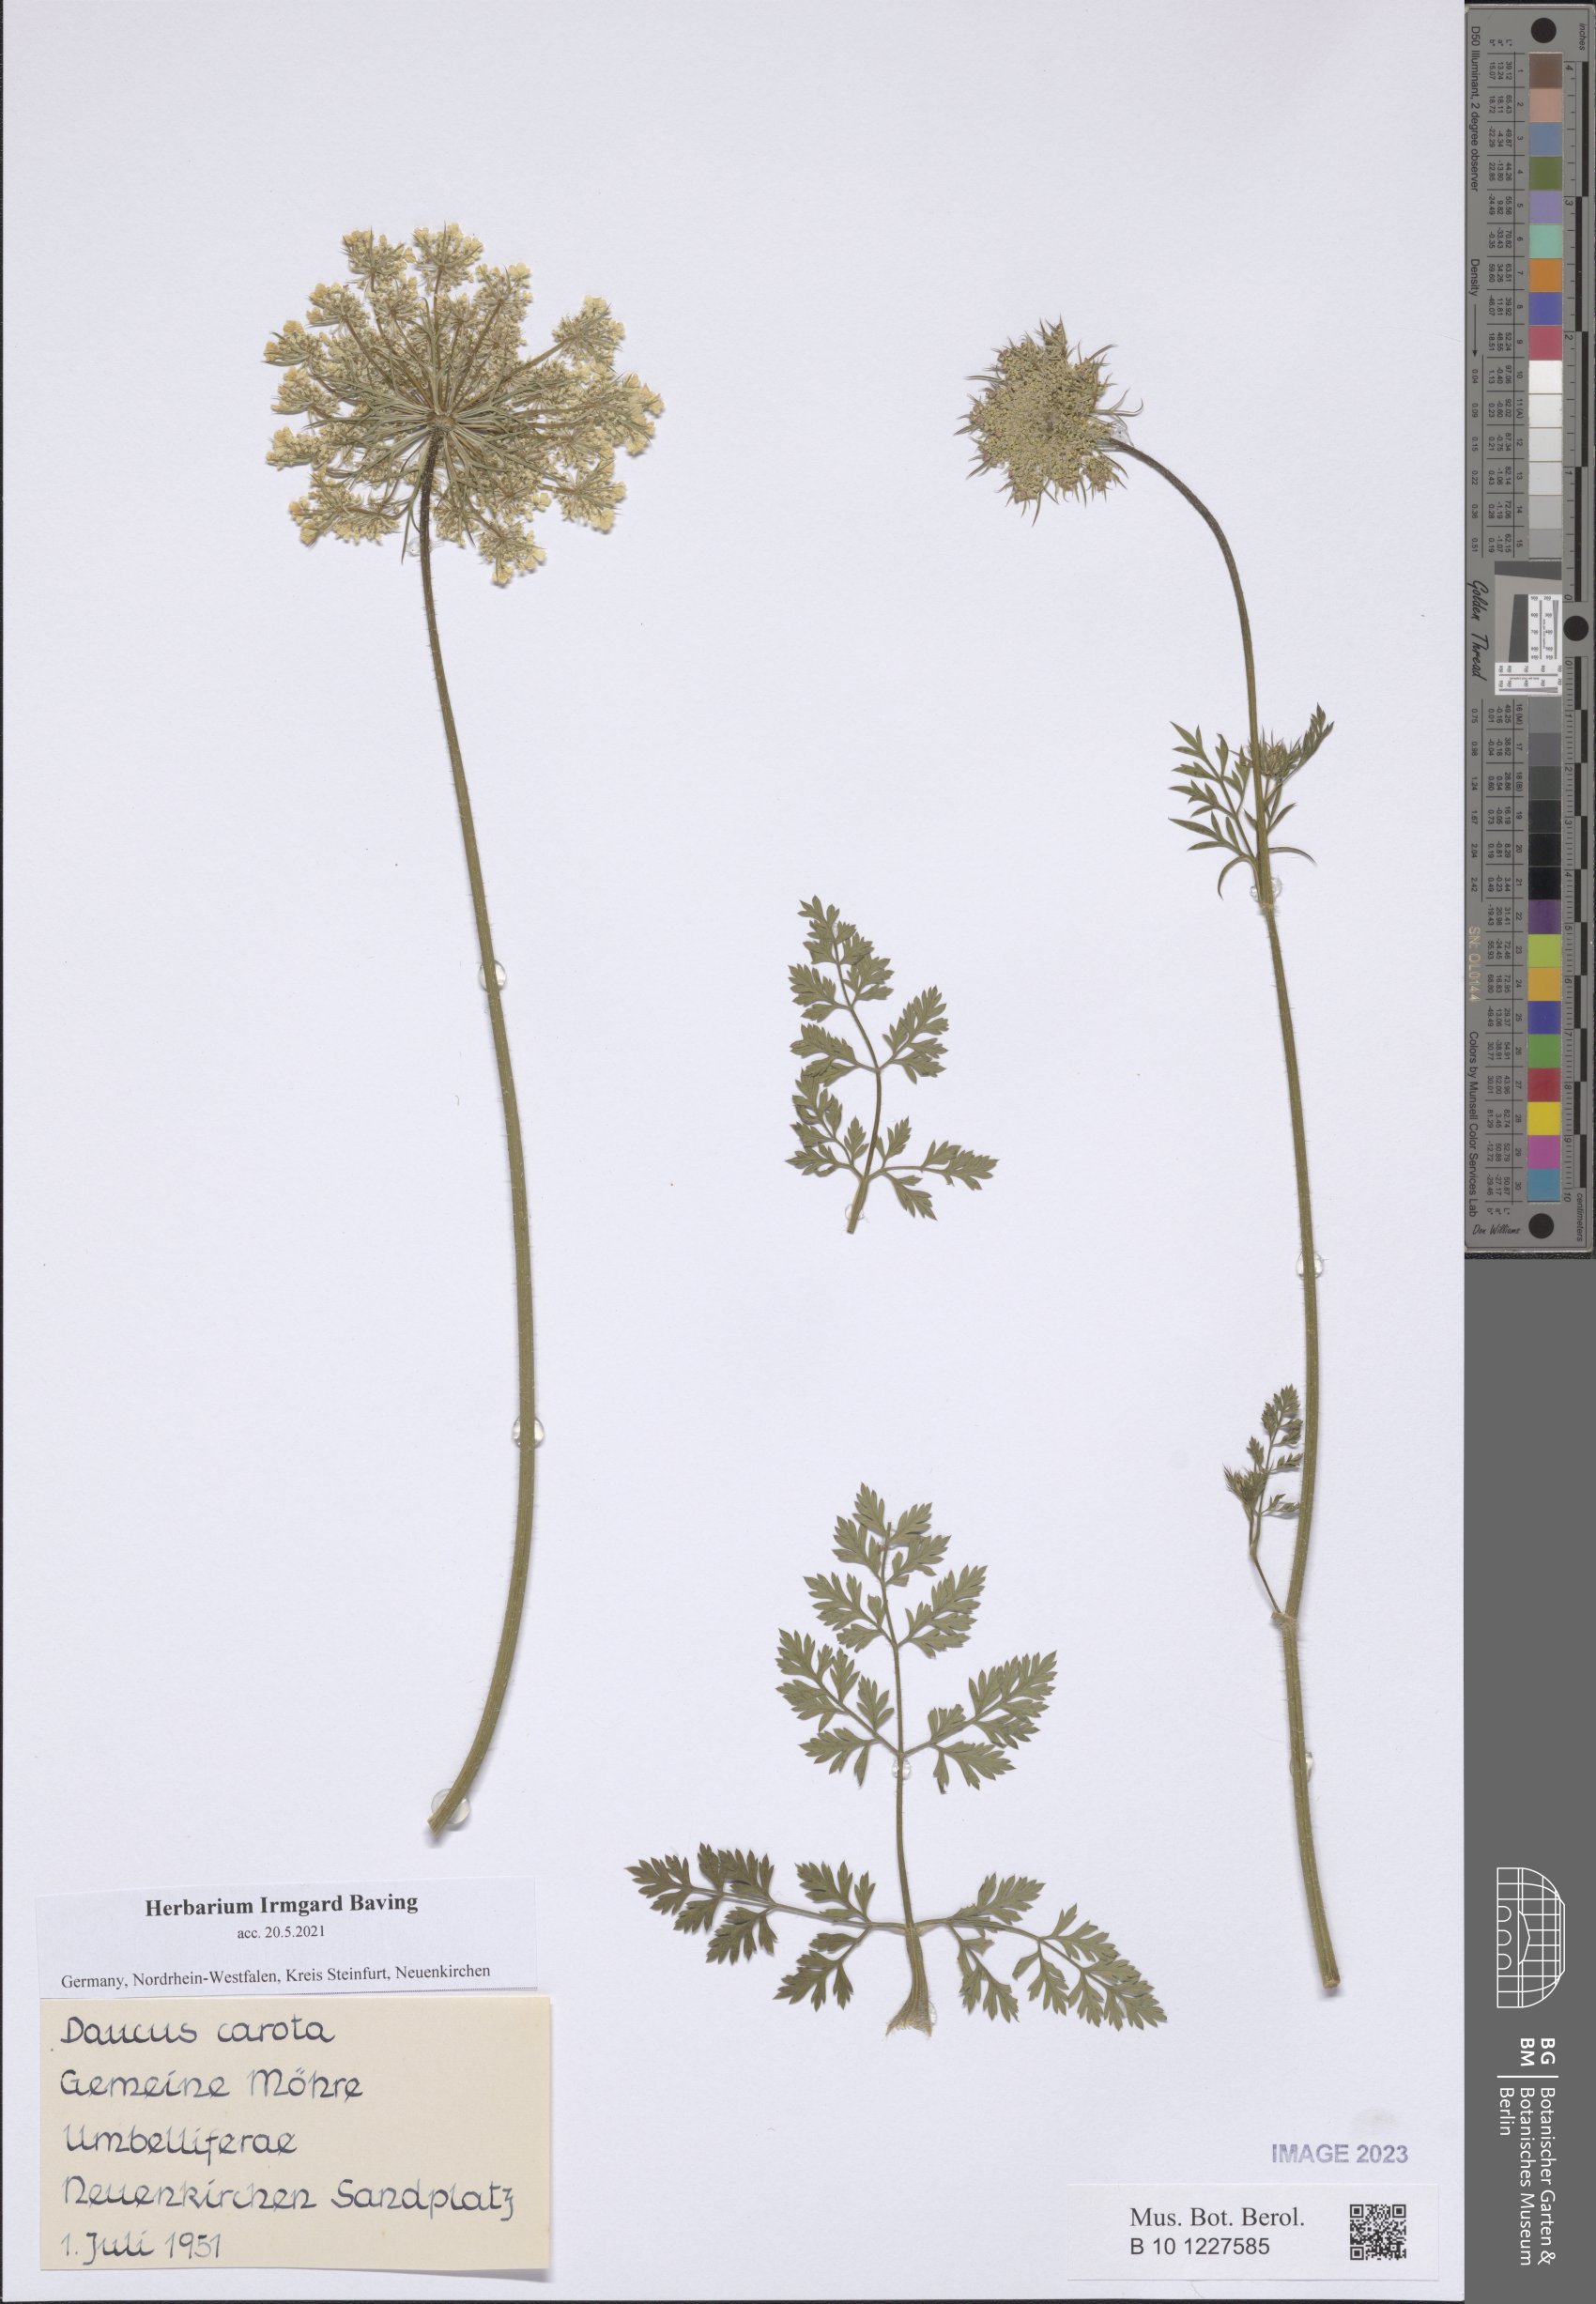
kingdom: Plantae
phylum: Tracheophyta
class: Magnoliopsida
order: Apiales
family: Apiaceae
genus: Daucus
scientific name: Daucus carota
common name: Wild carrot
